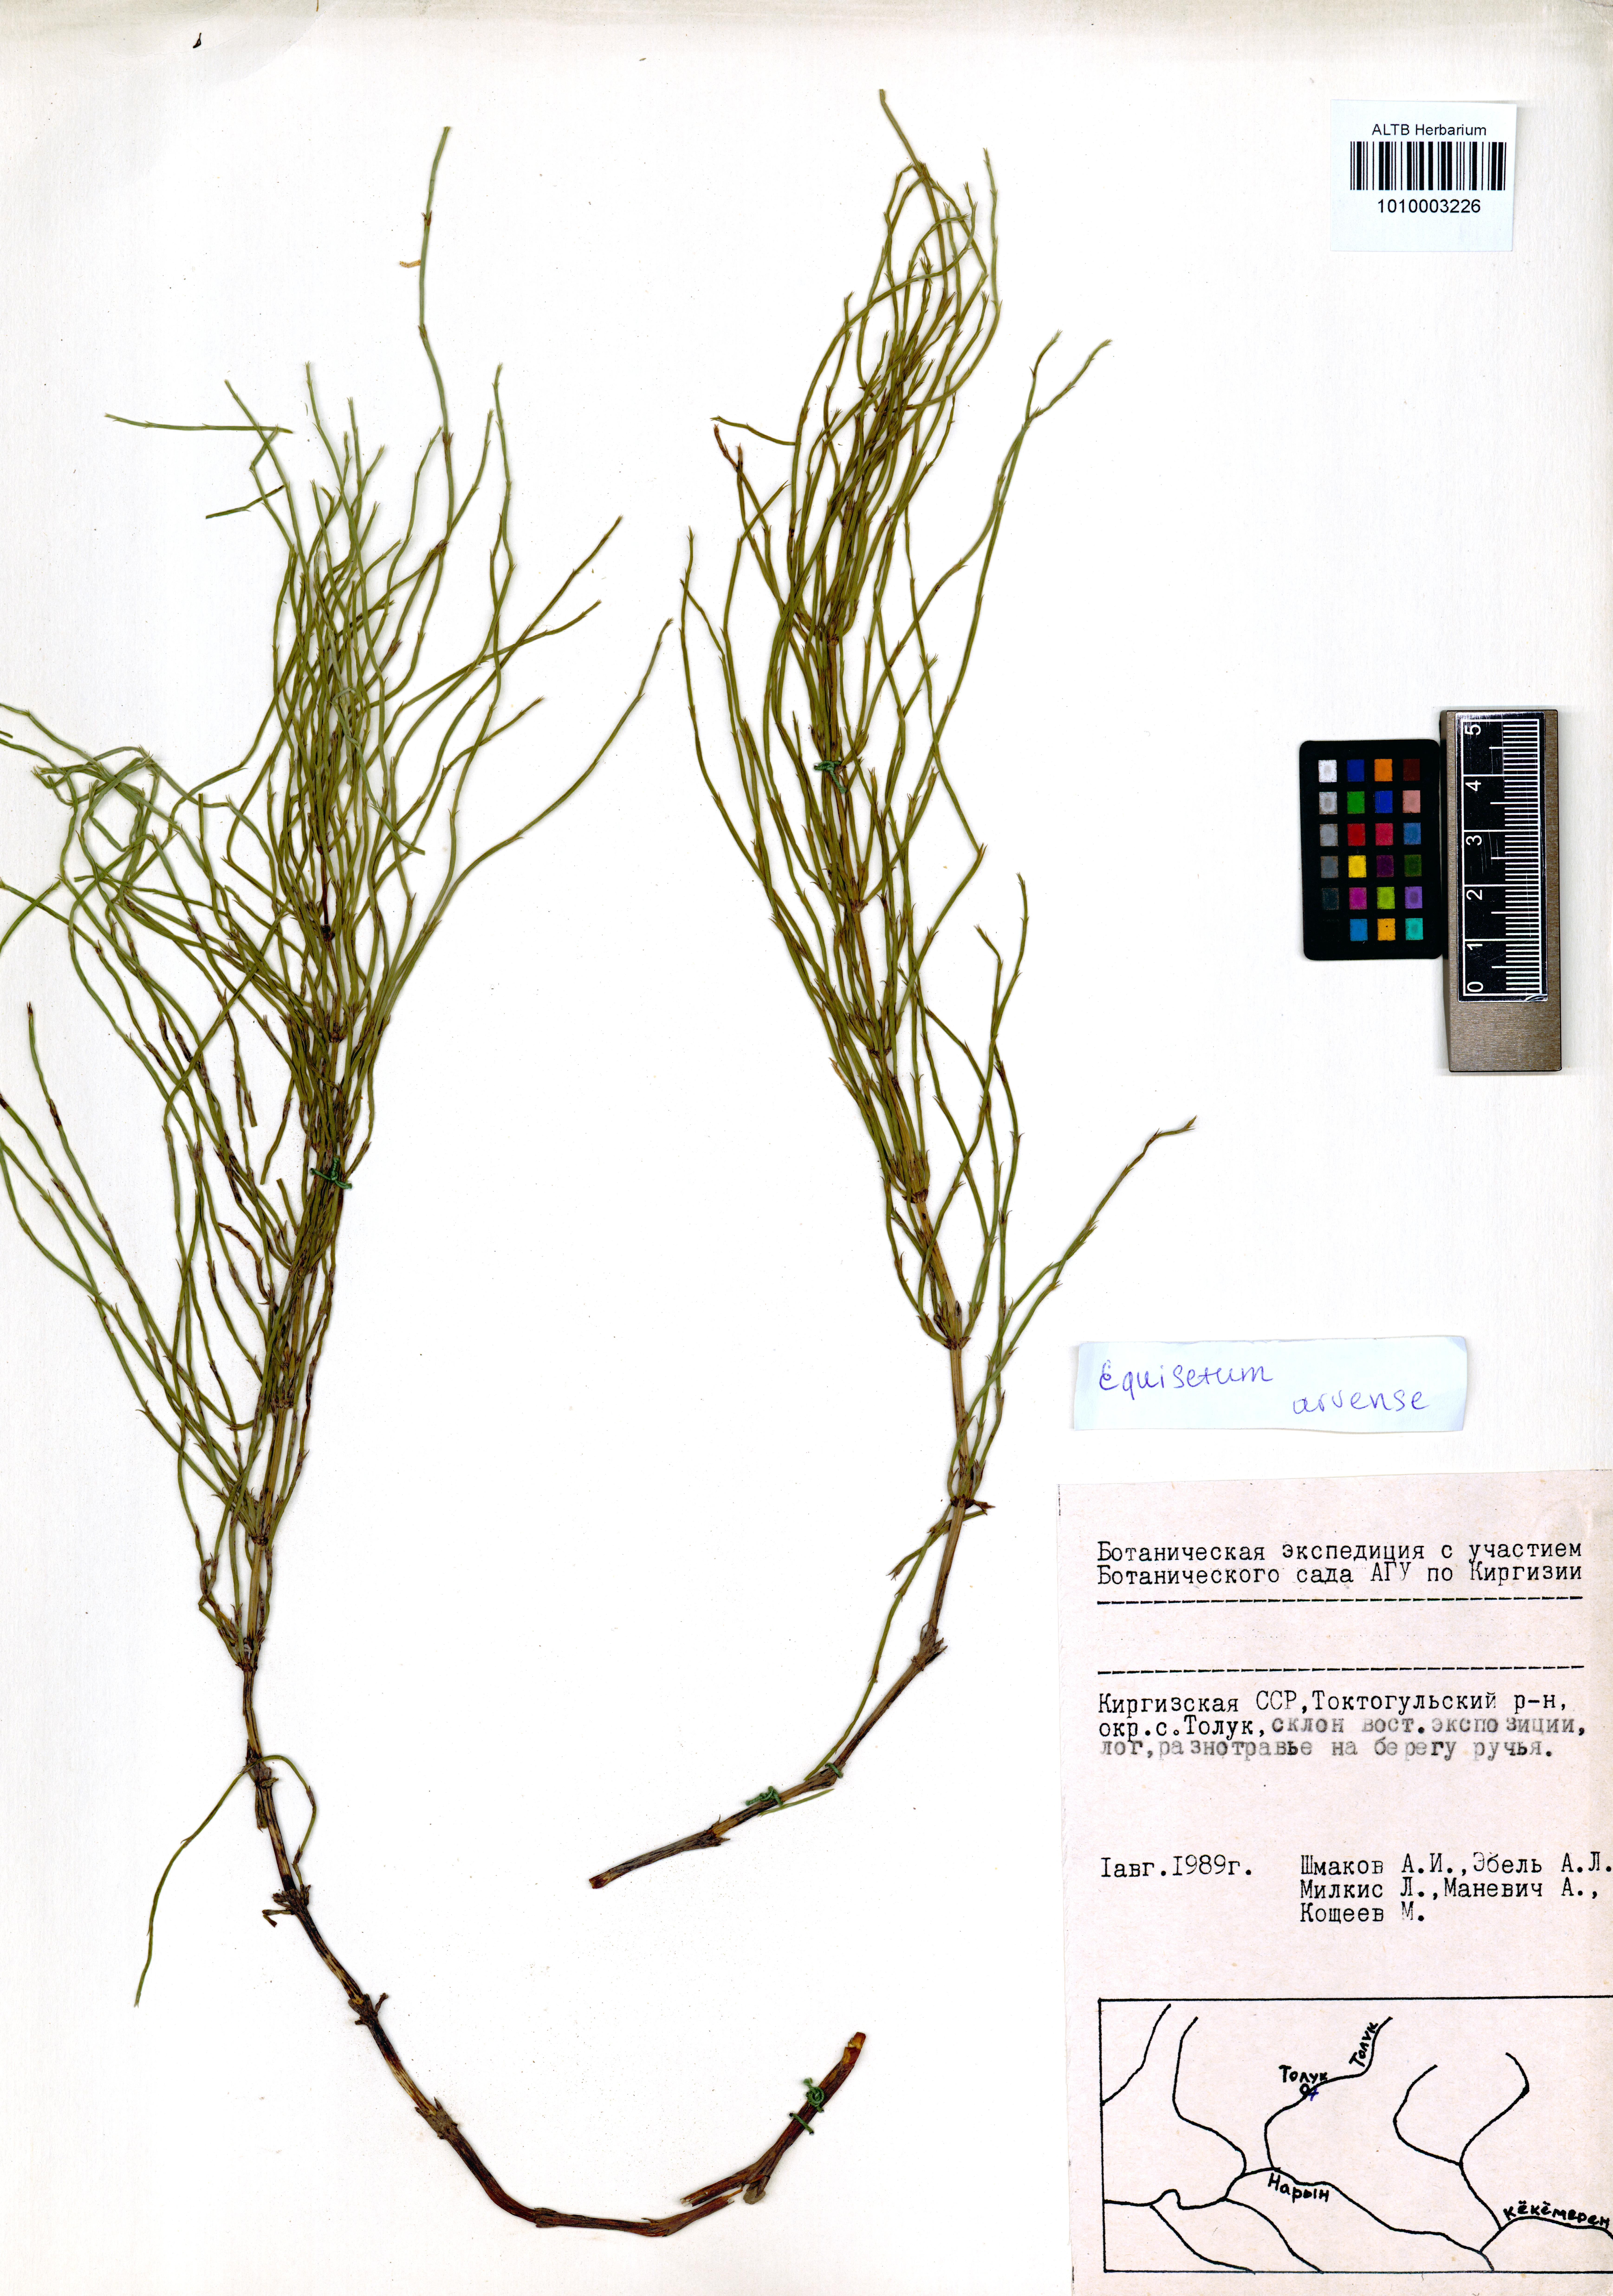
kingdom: Plantae
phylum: Tracheophyta
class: Polypodiopsida
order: Equisetales
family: Equisetaceae
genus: Equisetum
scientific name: Equisetum arvense
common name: Field horsetail
